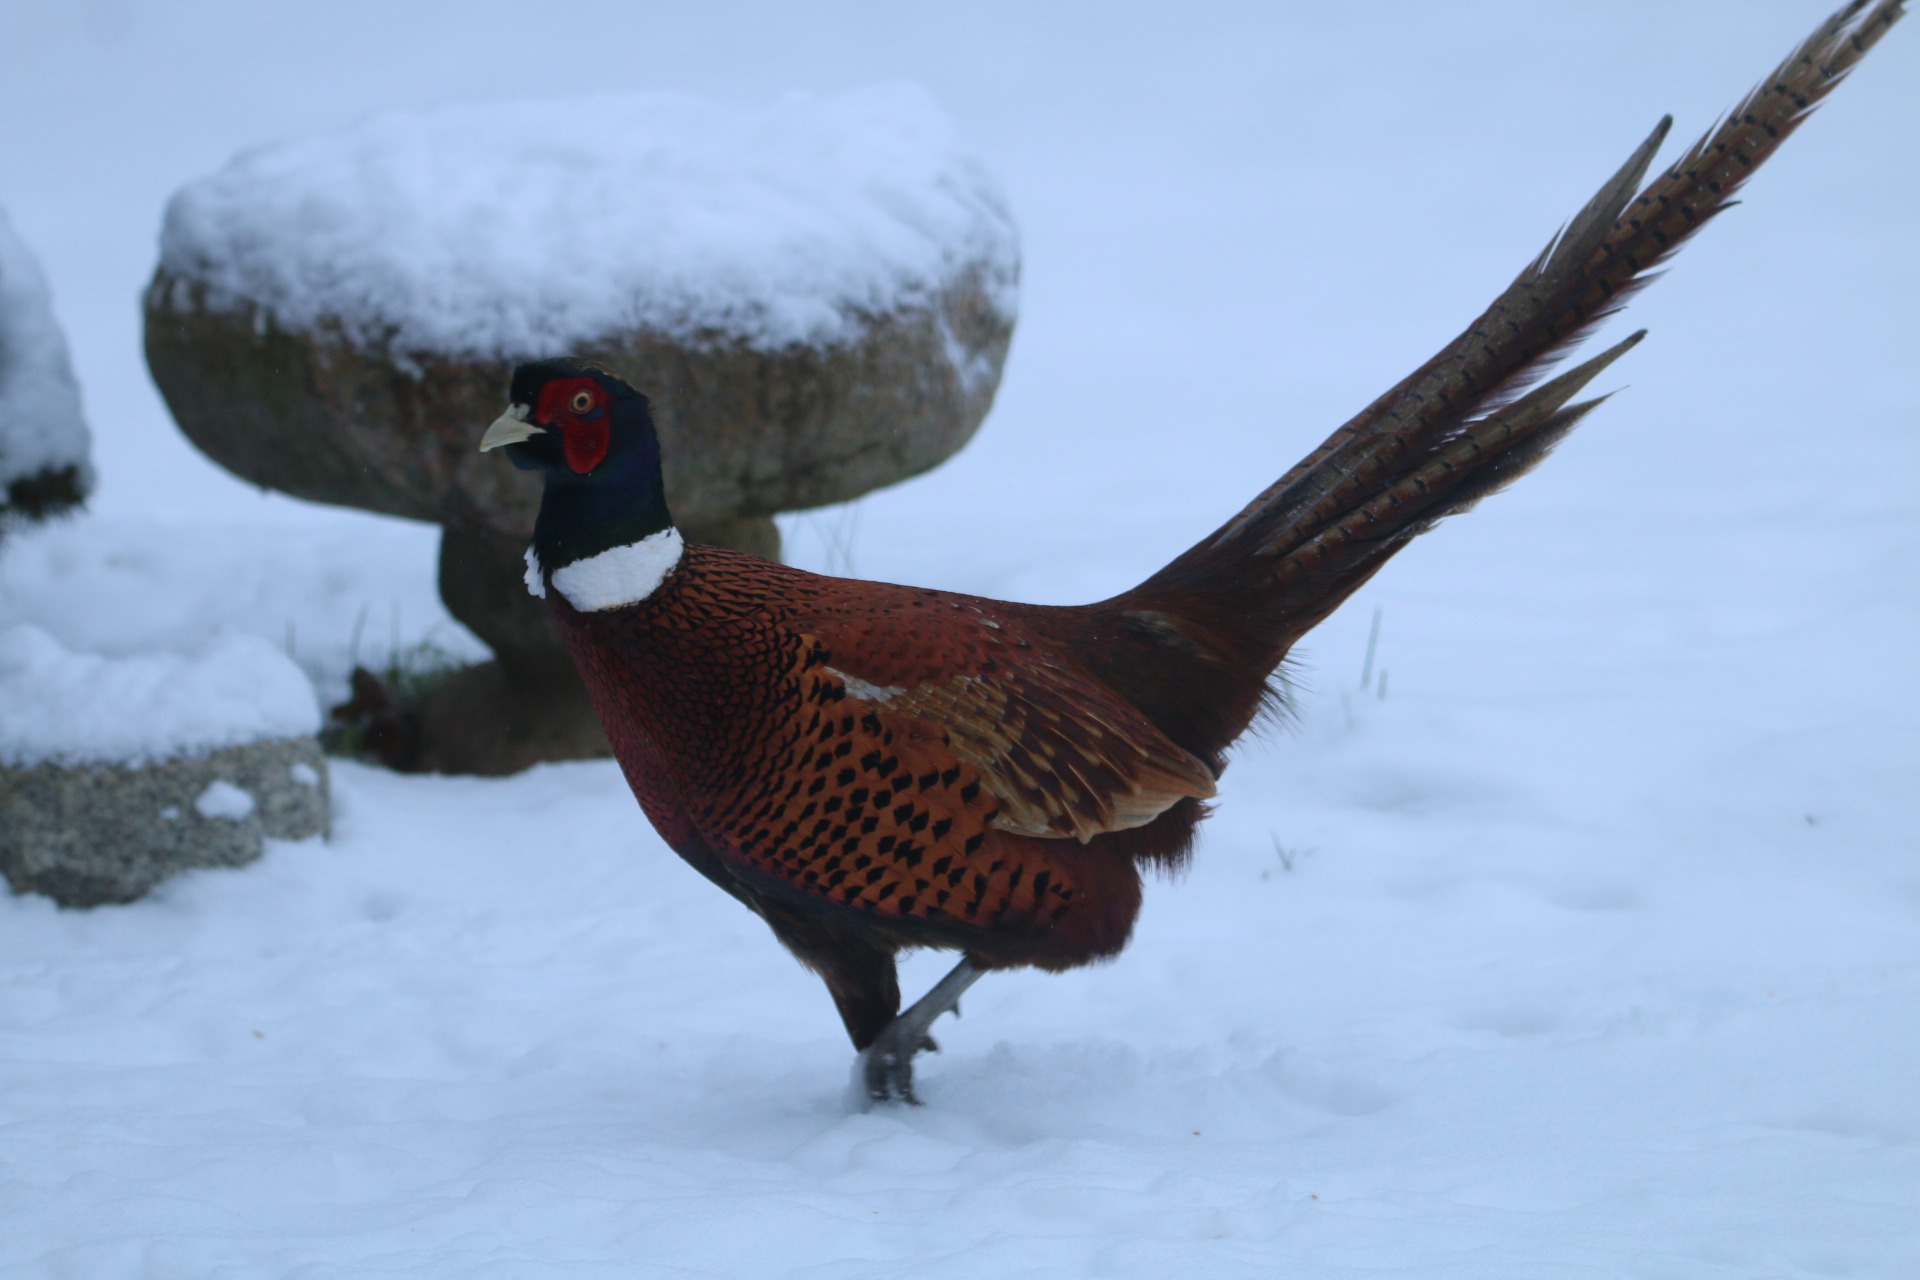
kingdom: Animalia
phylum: Chordata
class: Aves
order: Galliformes
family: Phasianidae
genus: Phasianus
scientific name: Phasianus colchicus
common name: Fasan
